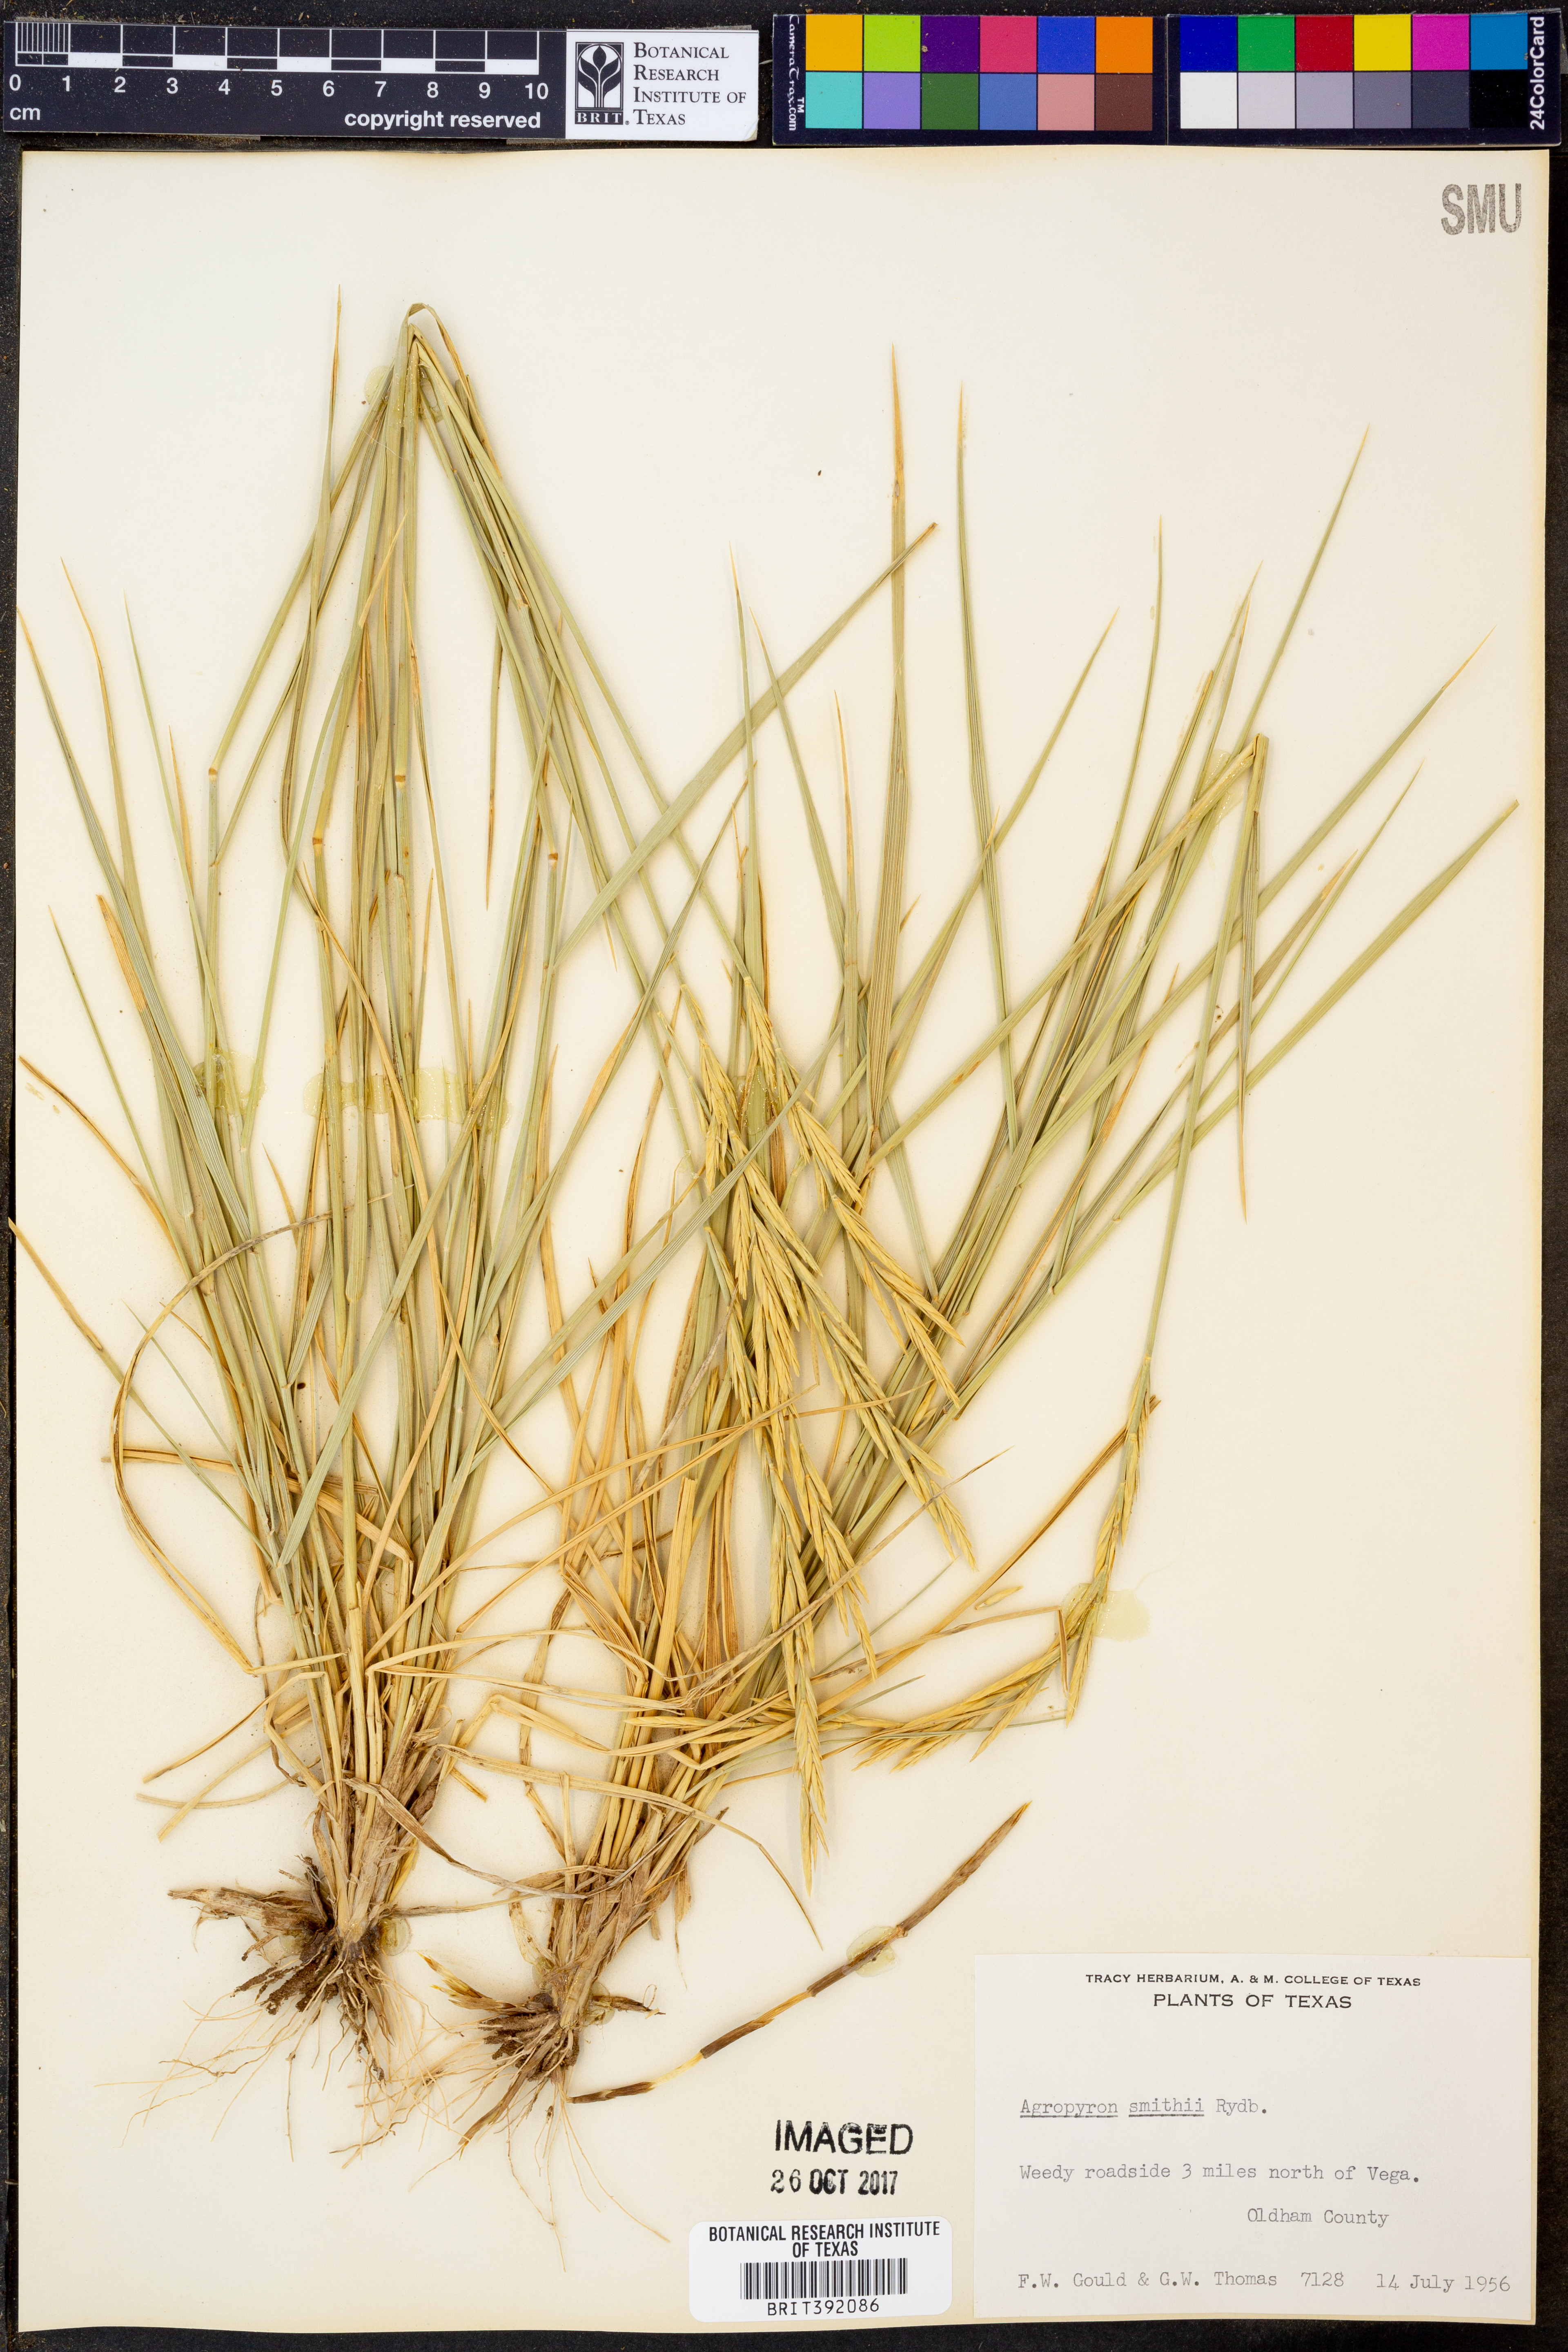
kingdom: Plantae
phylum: Tracheophyta
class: Liliopsida
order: Poales
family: Poaceae
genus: Elymus
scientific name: Elymus smithii
